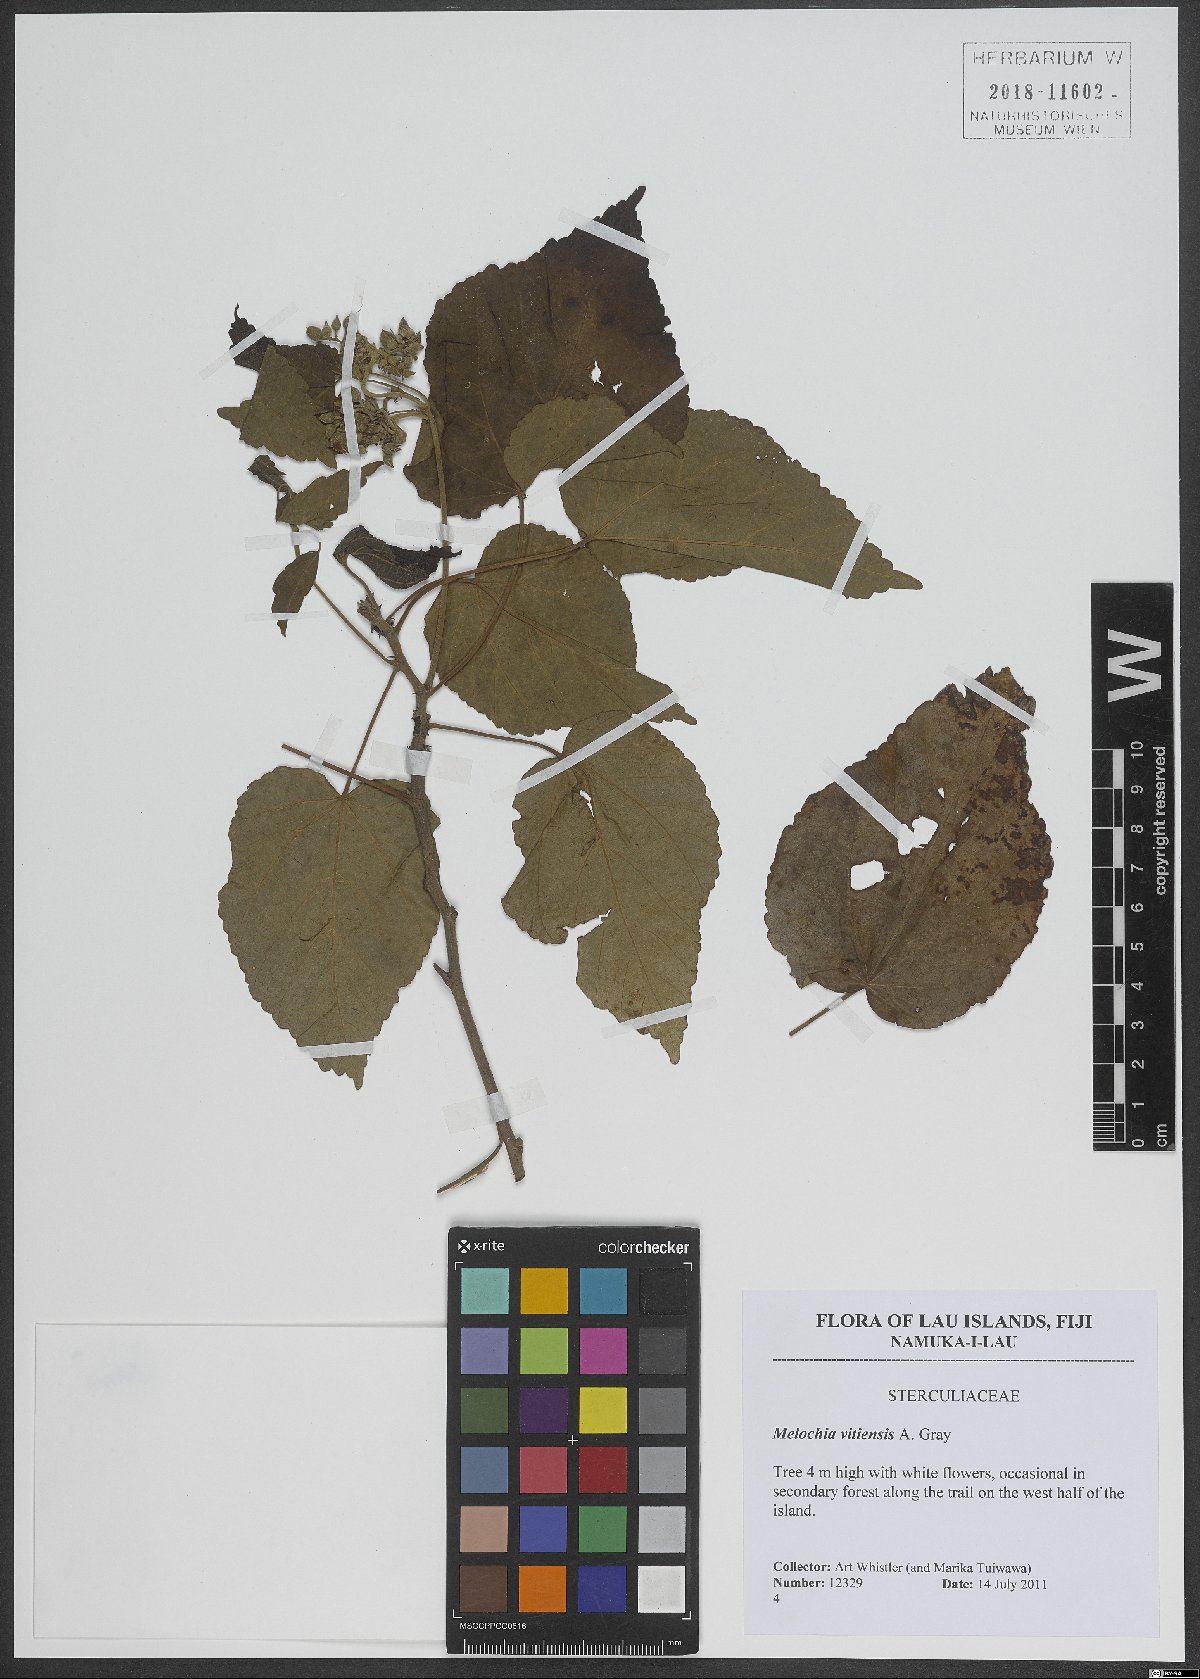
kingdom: Plantae
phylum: Tracheophyta
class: Magnoliopsida
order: Malvales
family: Malvaceae
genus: Melochia
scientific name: Melochia odorata
